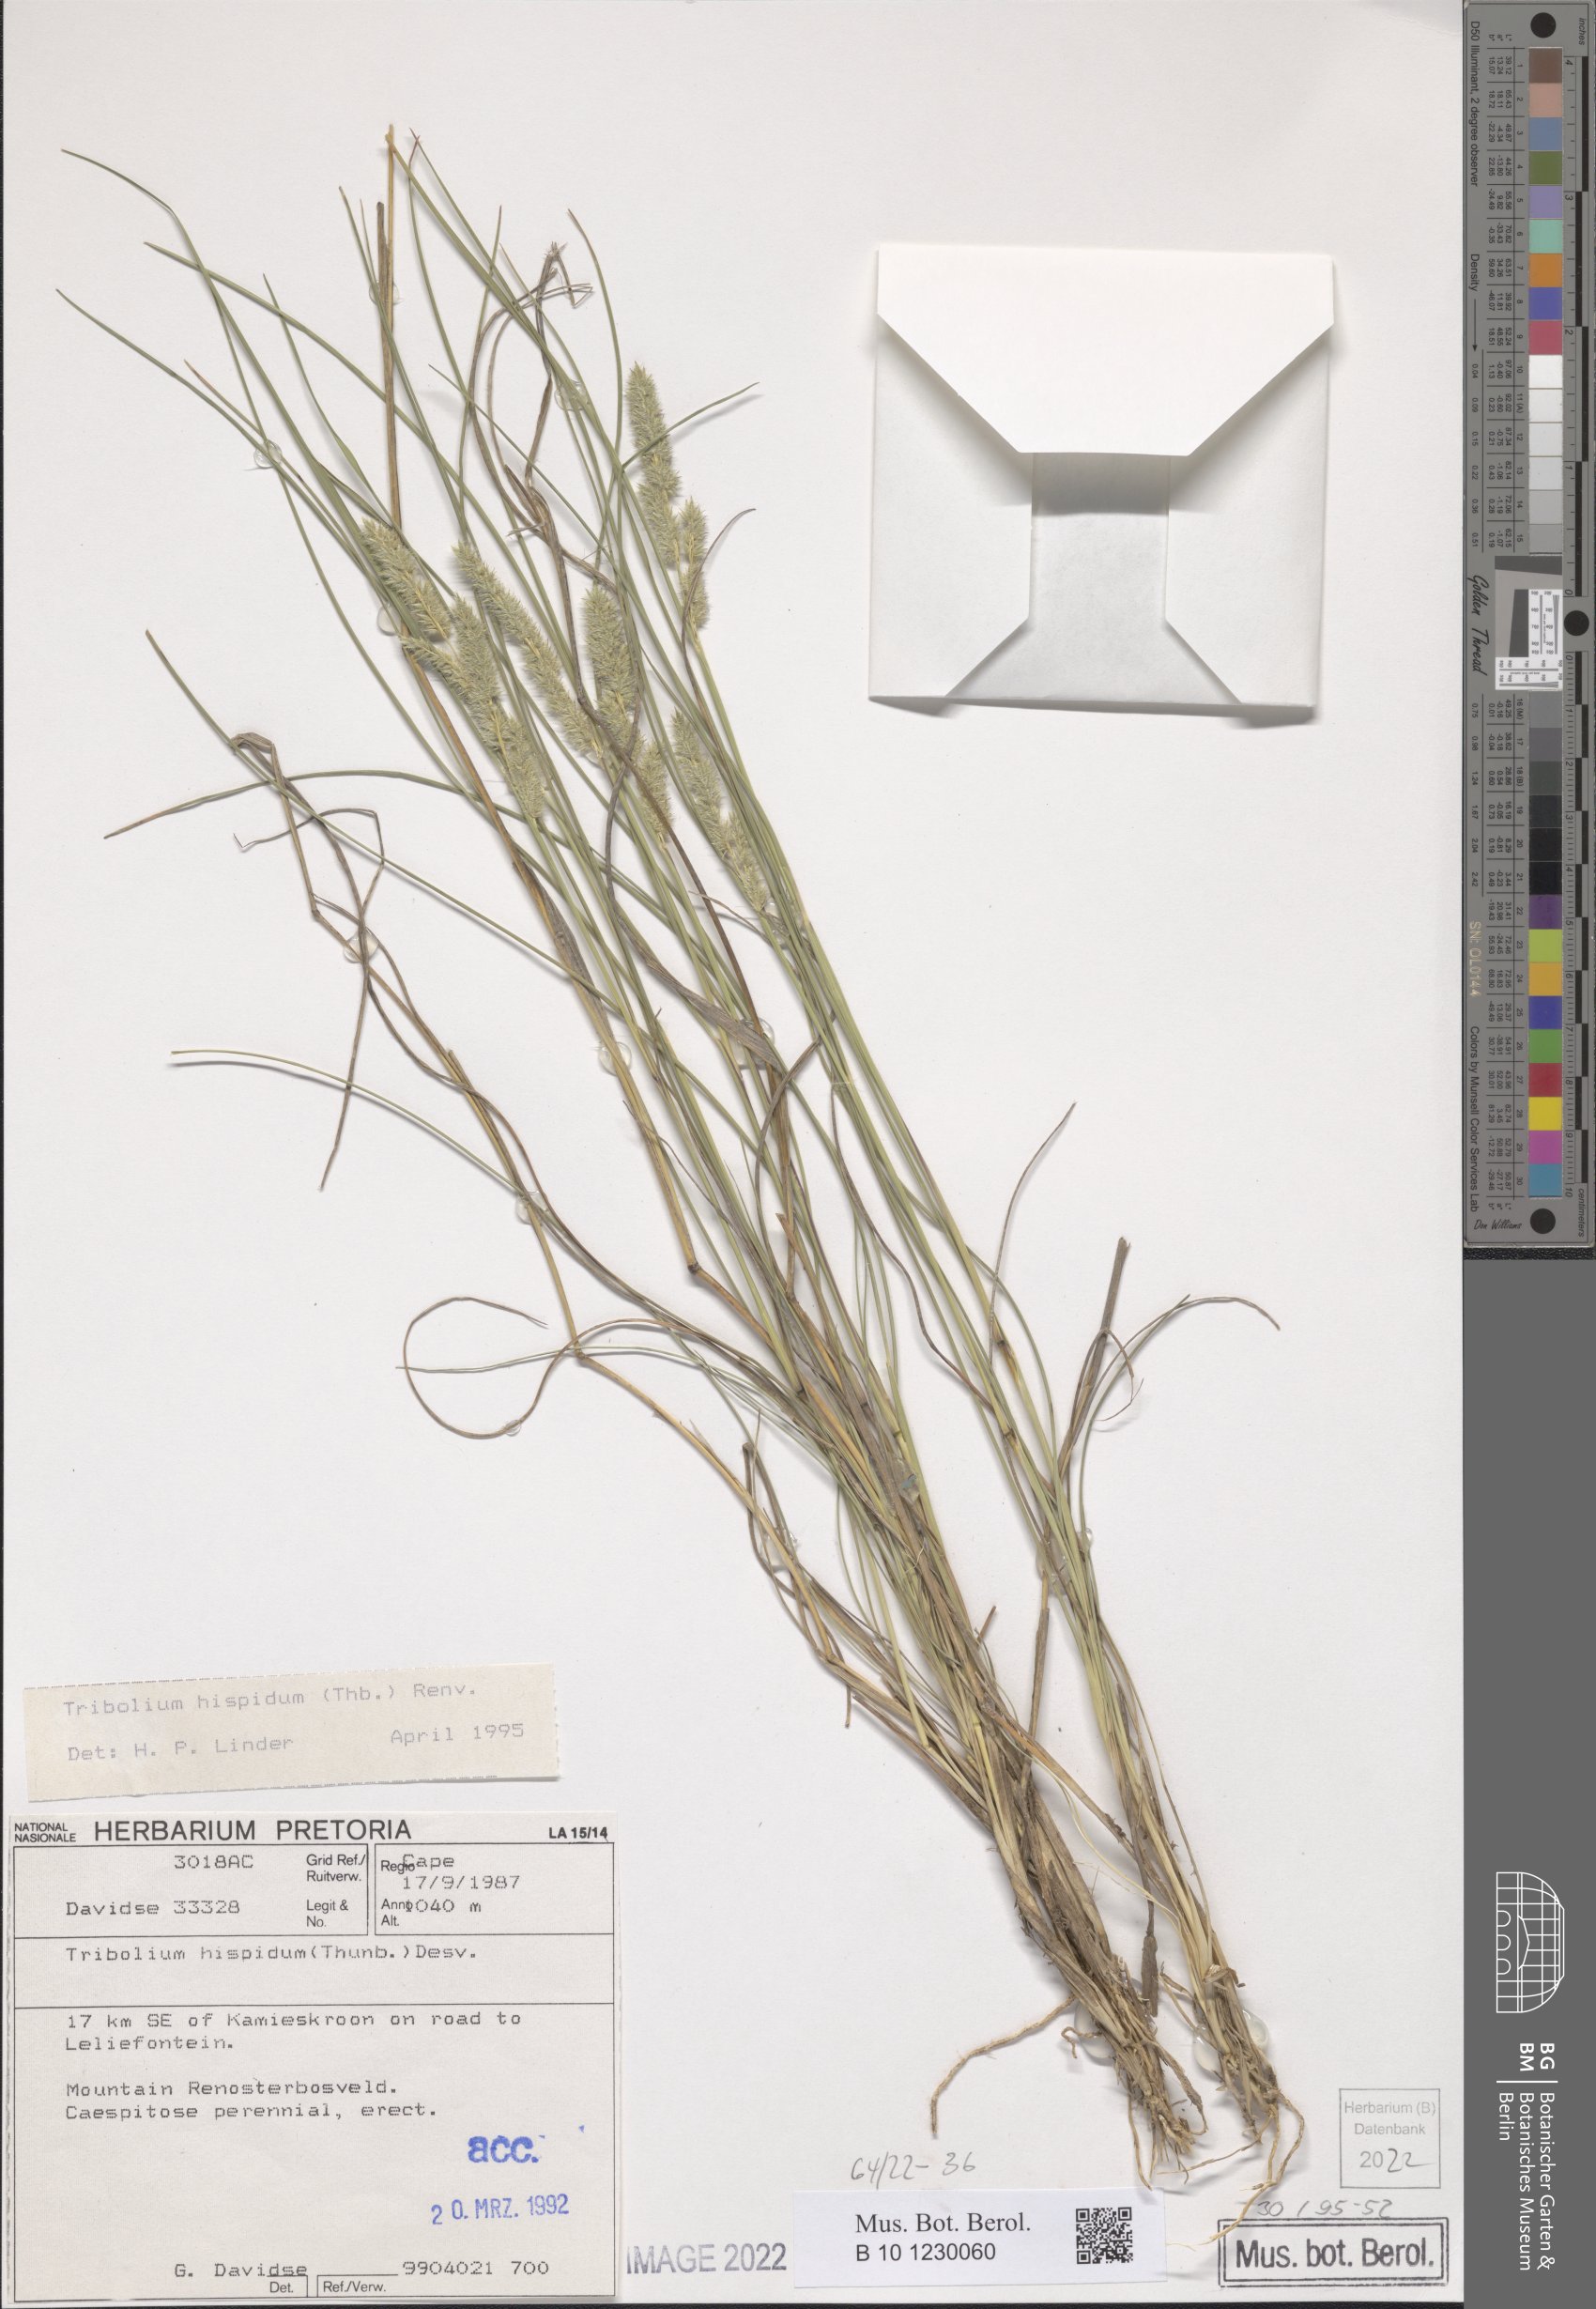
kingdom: Plantae
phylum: Tracheophyta
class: Liliopsida
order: Poales
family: Poaceae
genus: Tribolium
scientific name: Tribolium hispidum
